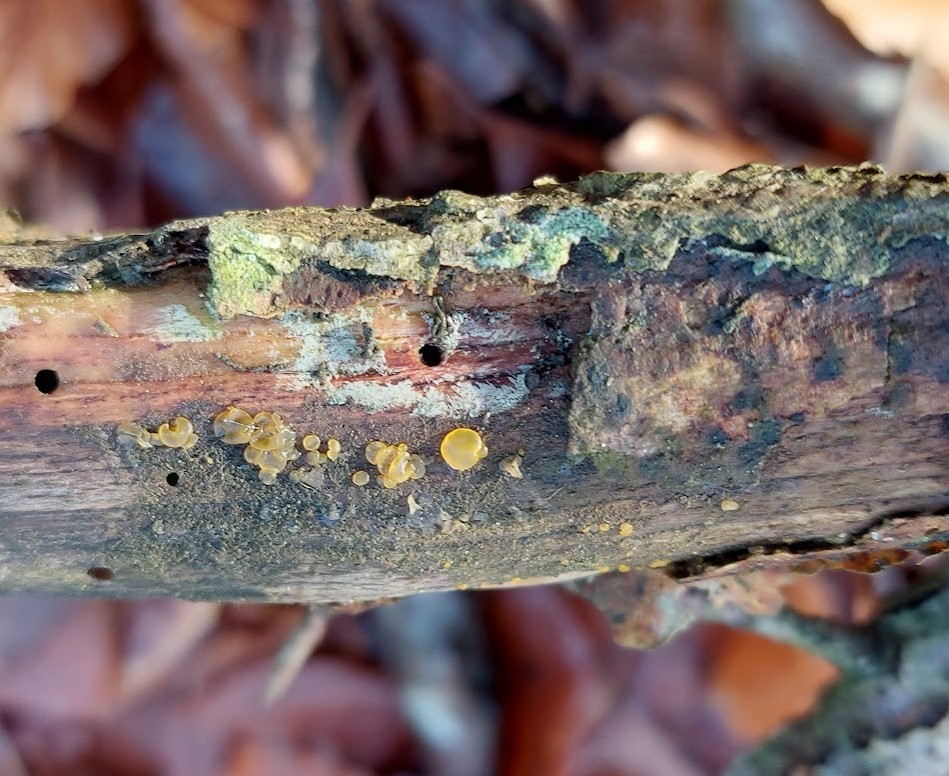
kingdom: Fungi
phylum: Basidiomycota
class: Dacrymycetes
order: Dacrymycetales
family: Dacrymycetaceae
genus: Dacrymyces
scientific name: Dacrymyces minor
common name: lille tåresvamp
